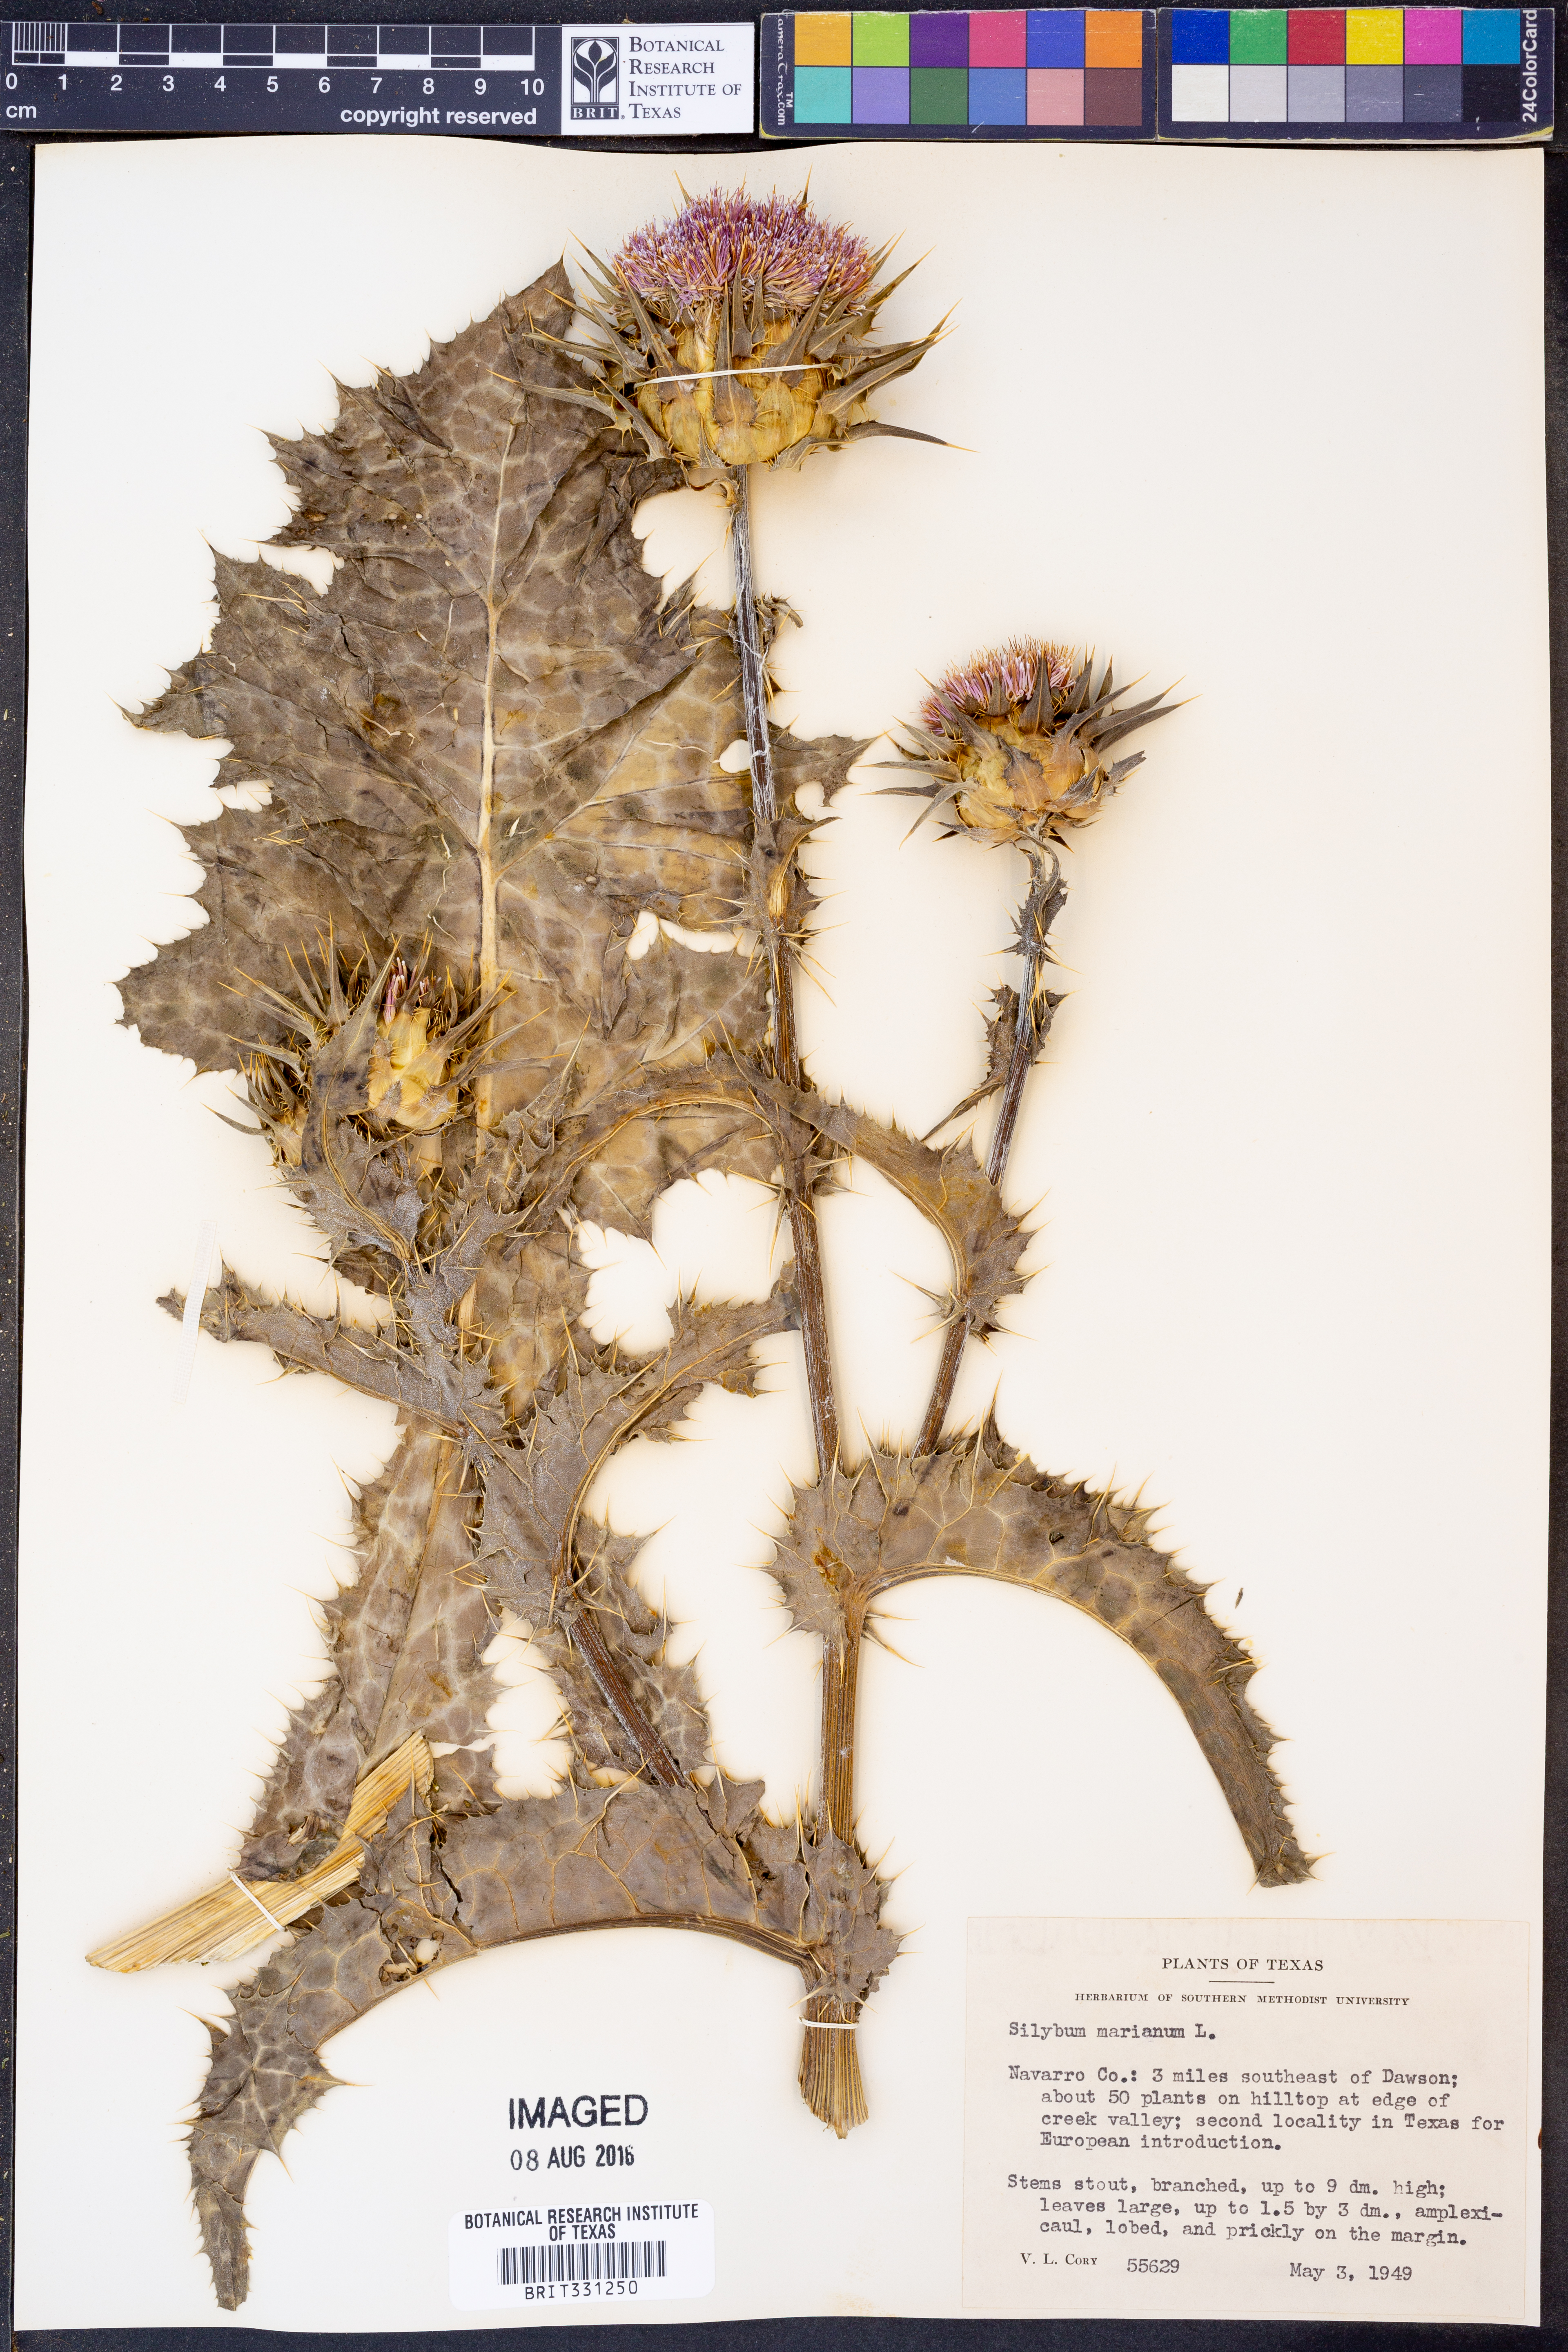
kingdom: Plantae
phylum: Tracheophyta
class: Magnoliopsida
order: Asterales
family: Asteraceae
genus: Silybum
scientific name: Silybum marianum
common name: Milk thistle
